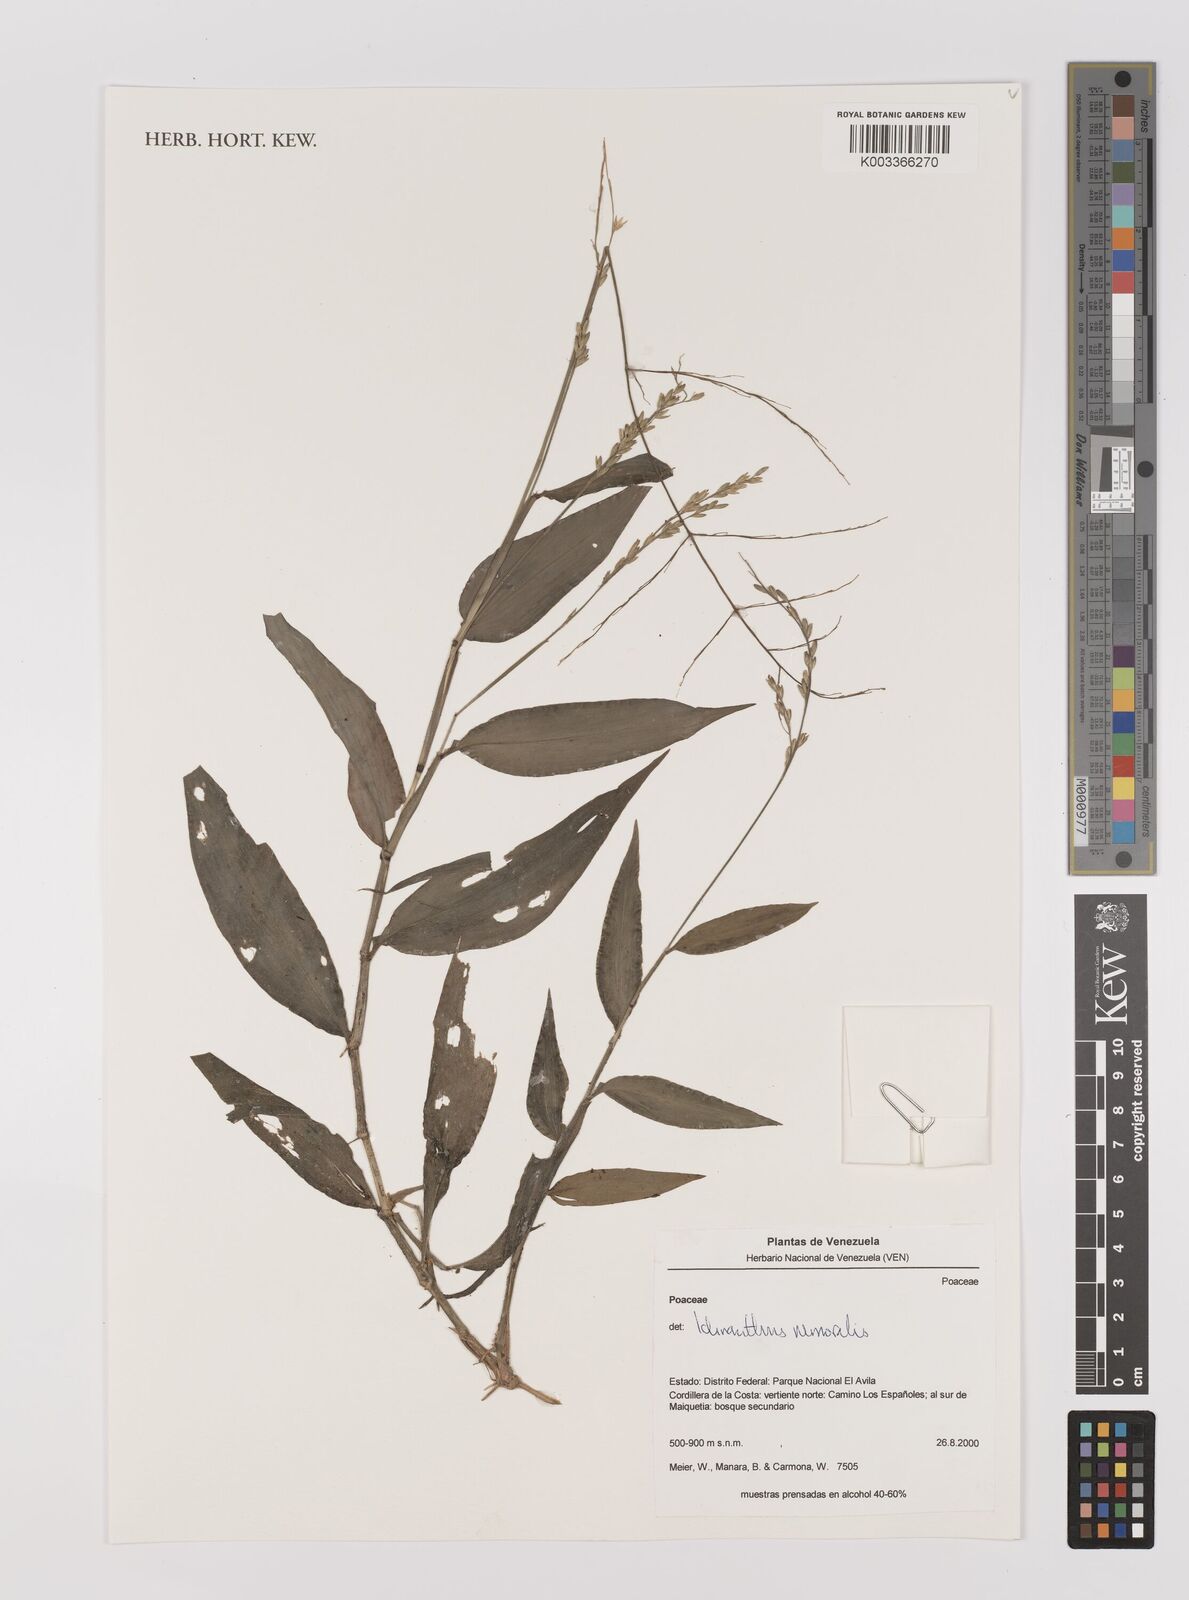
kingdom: Plantae
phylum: Tracheophyta
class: Liliopsida
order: Poales
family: Poaceae
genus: Ichnanthus
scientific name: Ichnanthus nemoralis
